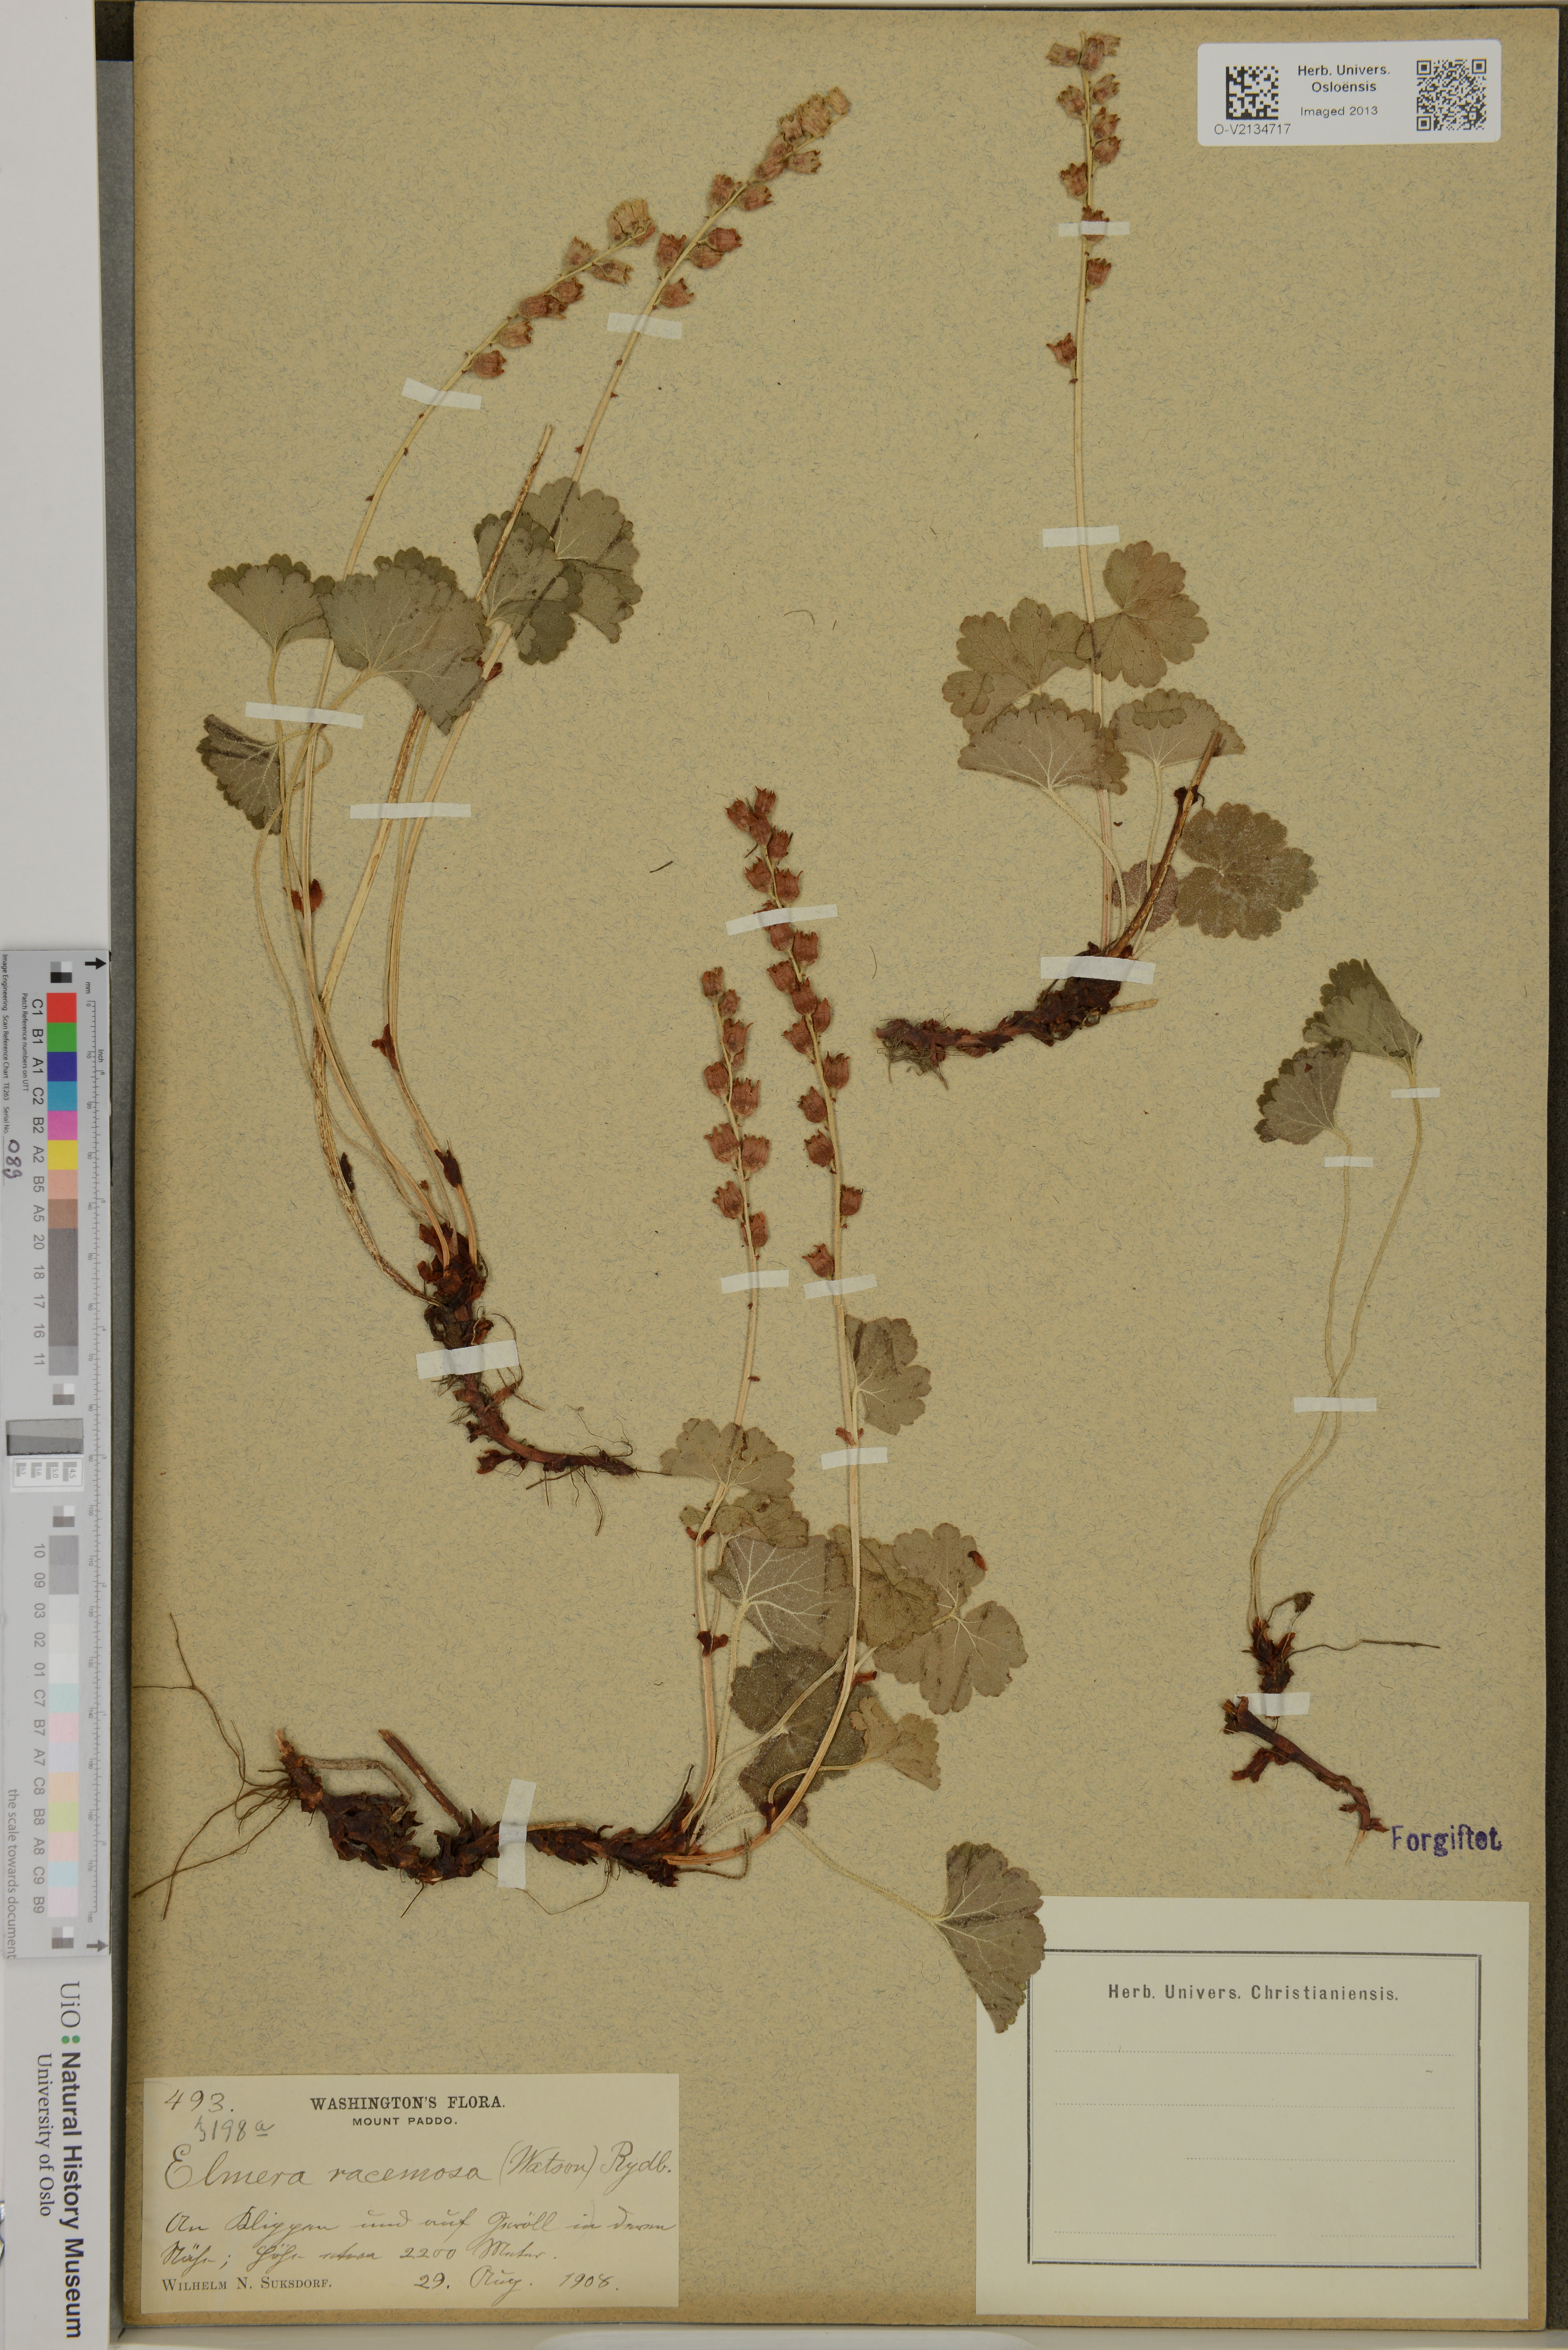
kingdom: Plantae
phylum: Tracheophyta
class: Magnoliopsida
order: Saxifragales
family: Saxifragaceae
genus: Elmera
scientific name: Elmera racemosa
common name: Elmera
